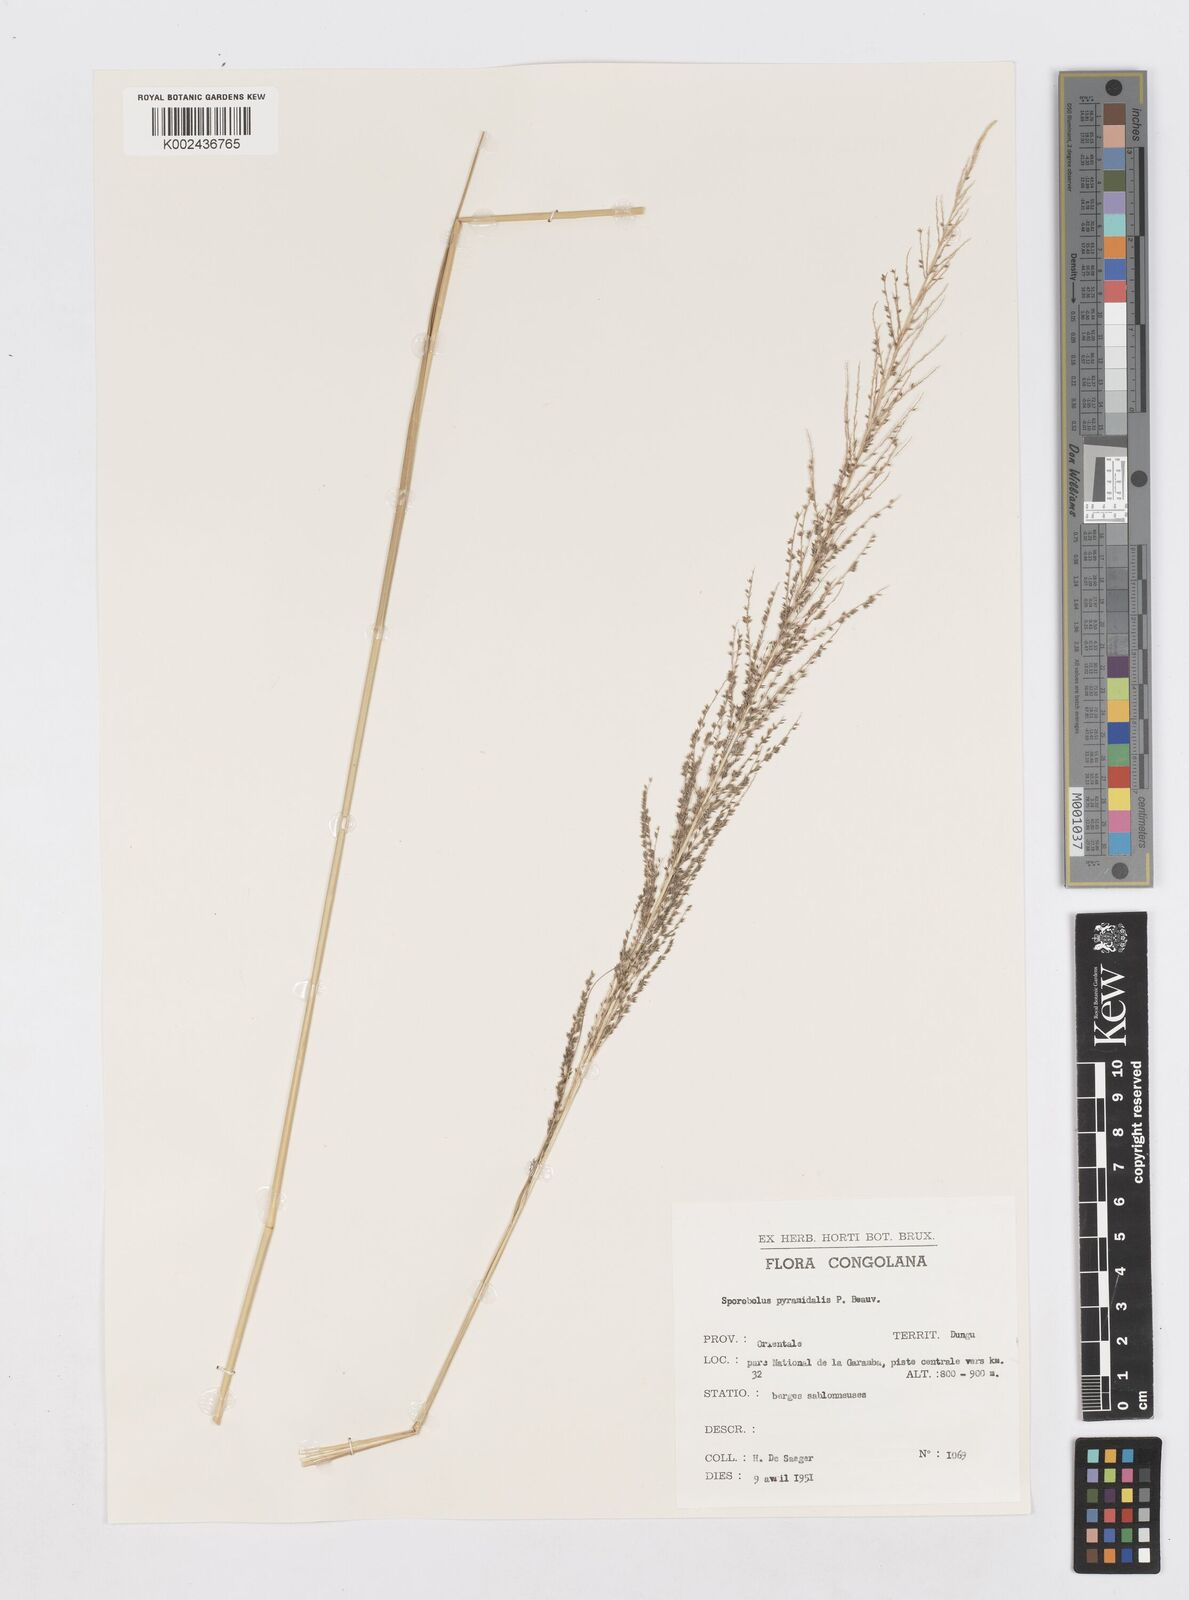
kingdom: Plantae
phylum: Tracheophyta
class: Liliopsida
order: Poales
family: Poaceae
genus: Sporobolus
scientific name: Sporobolus pyramidalis
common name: West indian dropseed
